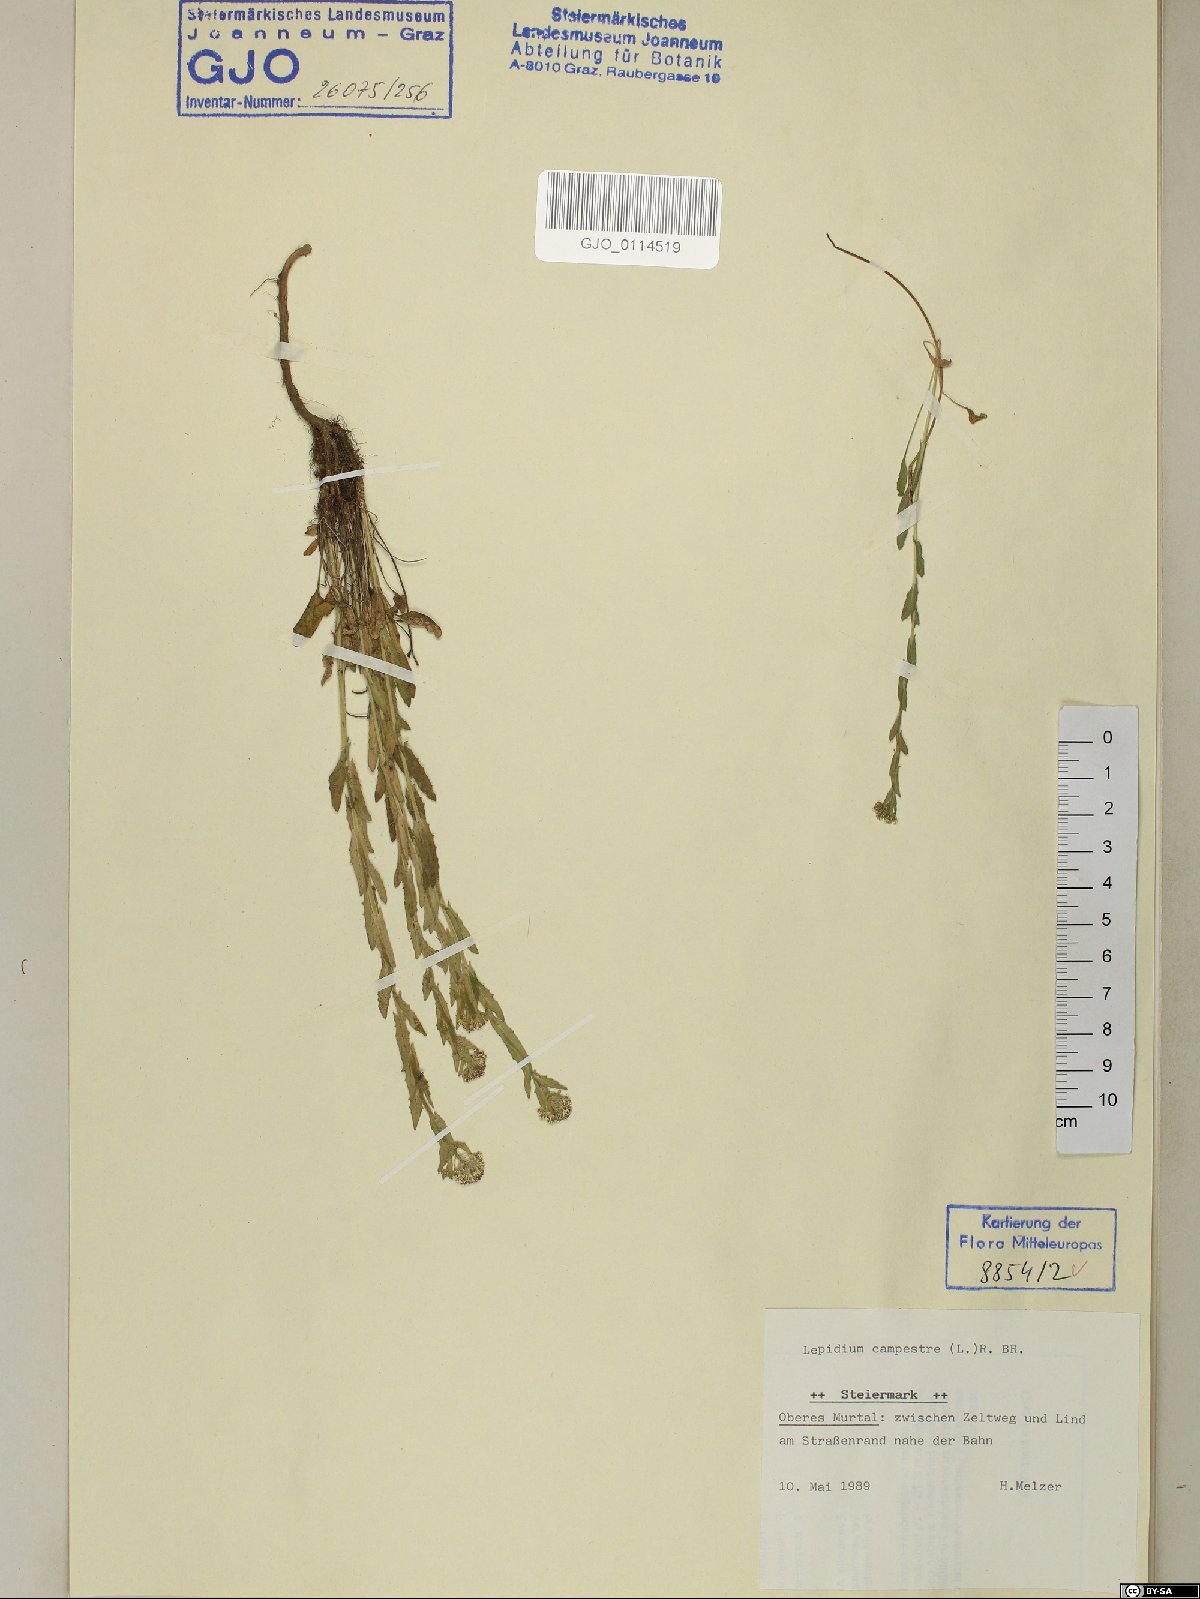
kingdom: Plantae
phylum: Tracheophyta
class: Magnoliopsida
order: Brassicales
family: Brassicaceae
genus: Lepidium
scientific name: Lepidium campestre
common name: Field pepperwort
